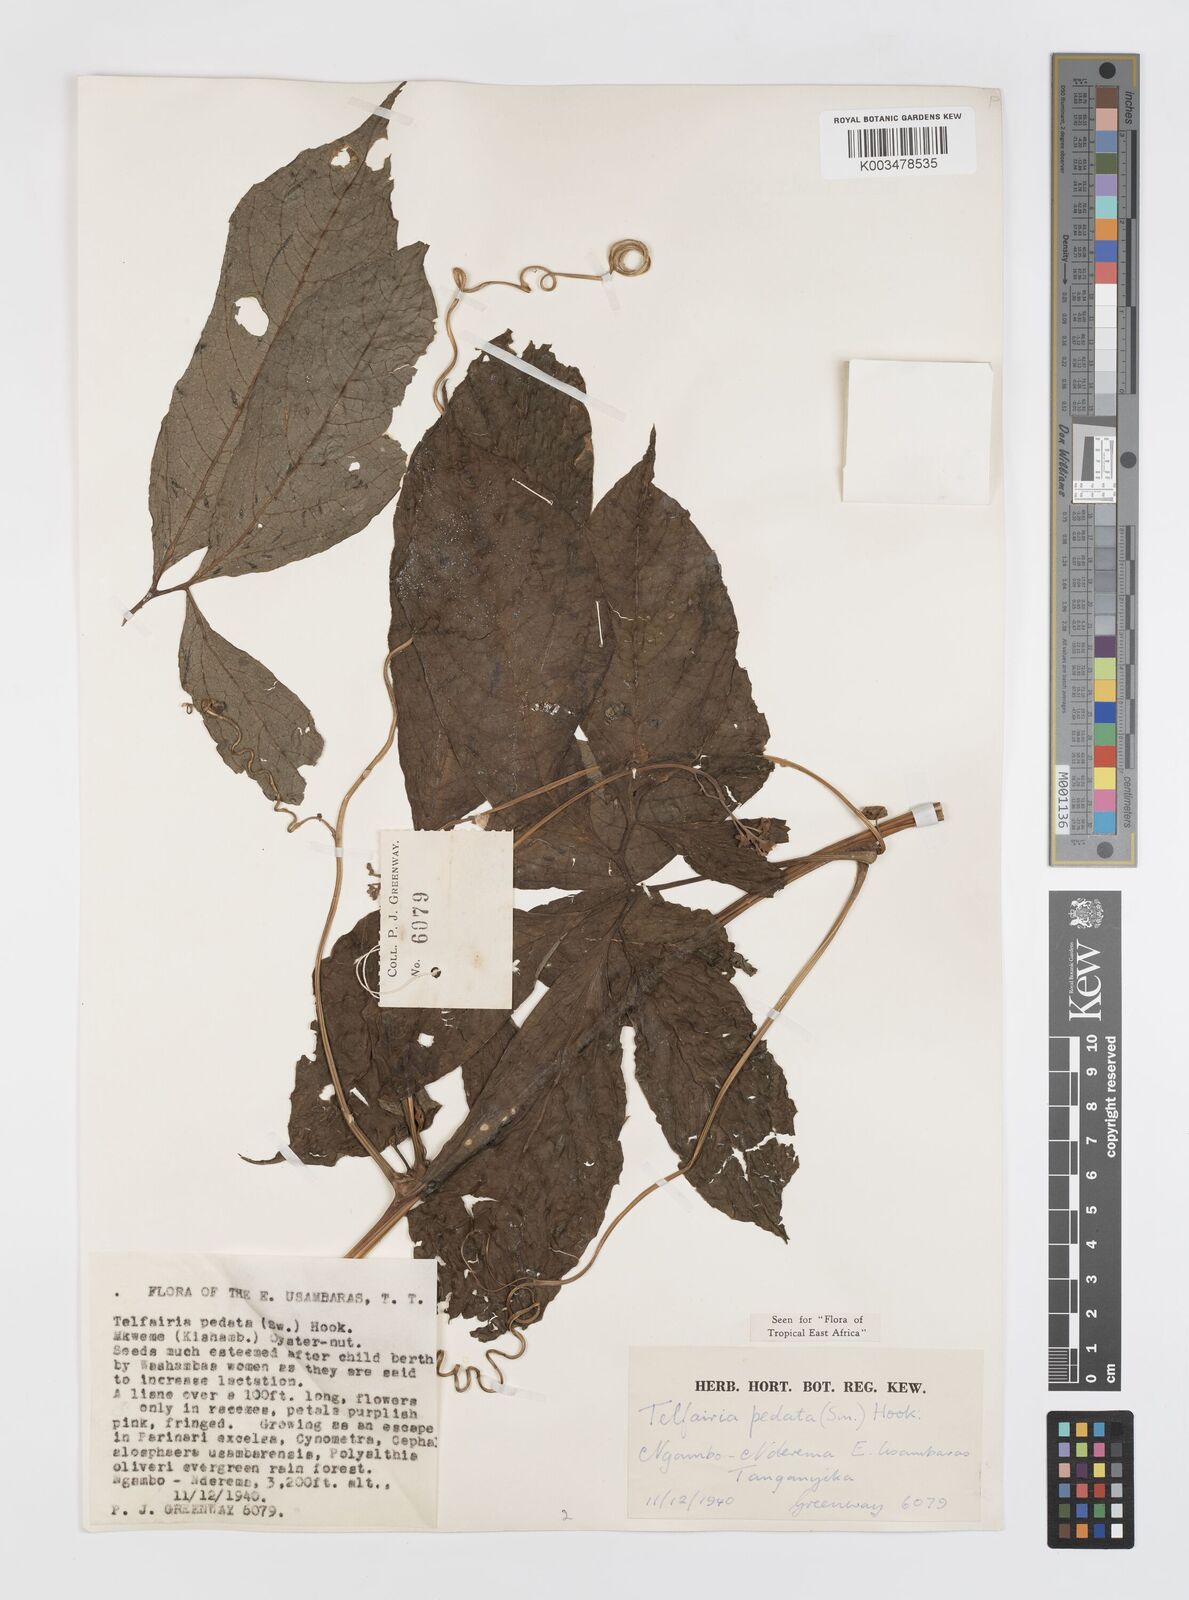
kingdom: Plantae
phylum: Tracheophyta
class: Magnoliopsida
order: Cucurbitales
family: Cucurbitaceae
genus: Telfairia
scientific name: Telfairia pedata
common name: Zanzibar oilvine
